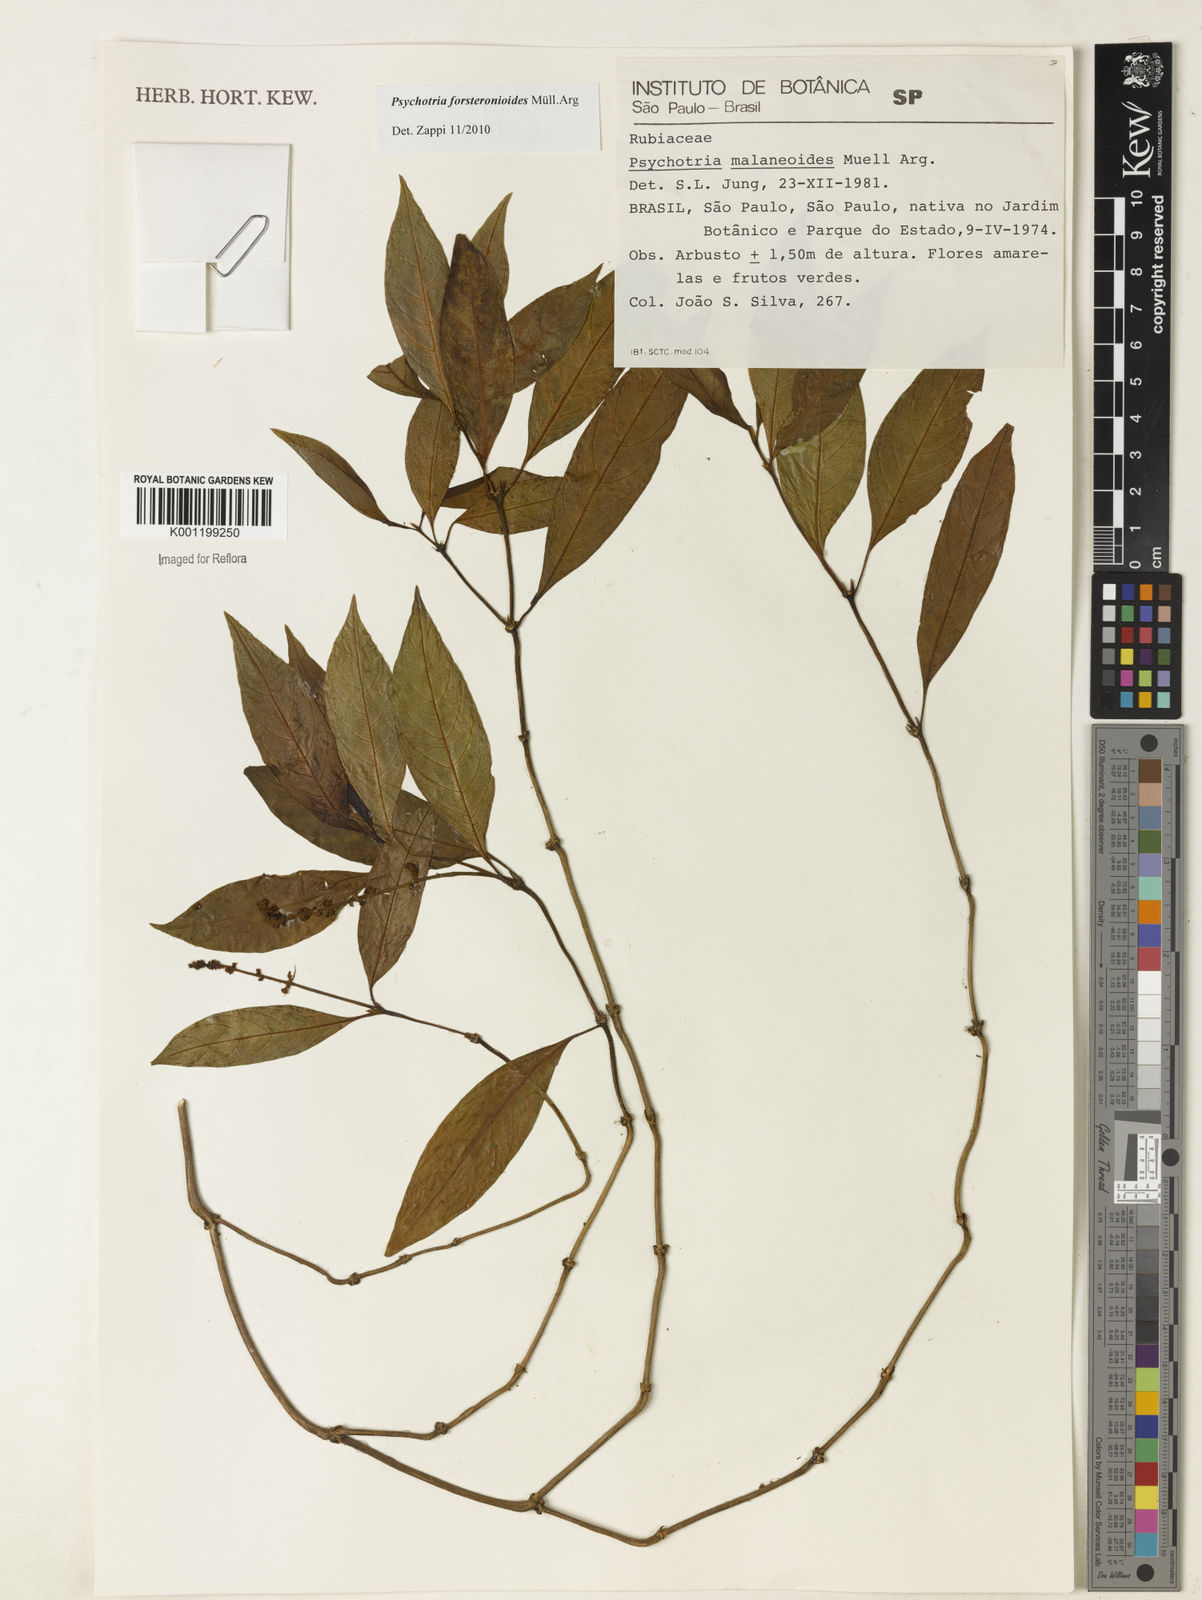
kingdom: Plantae
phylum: Tracheophyta
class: Magnoliopsida
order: Gentianales
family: Rubiaceae
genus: Psychotria
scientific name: Psychotria
